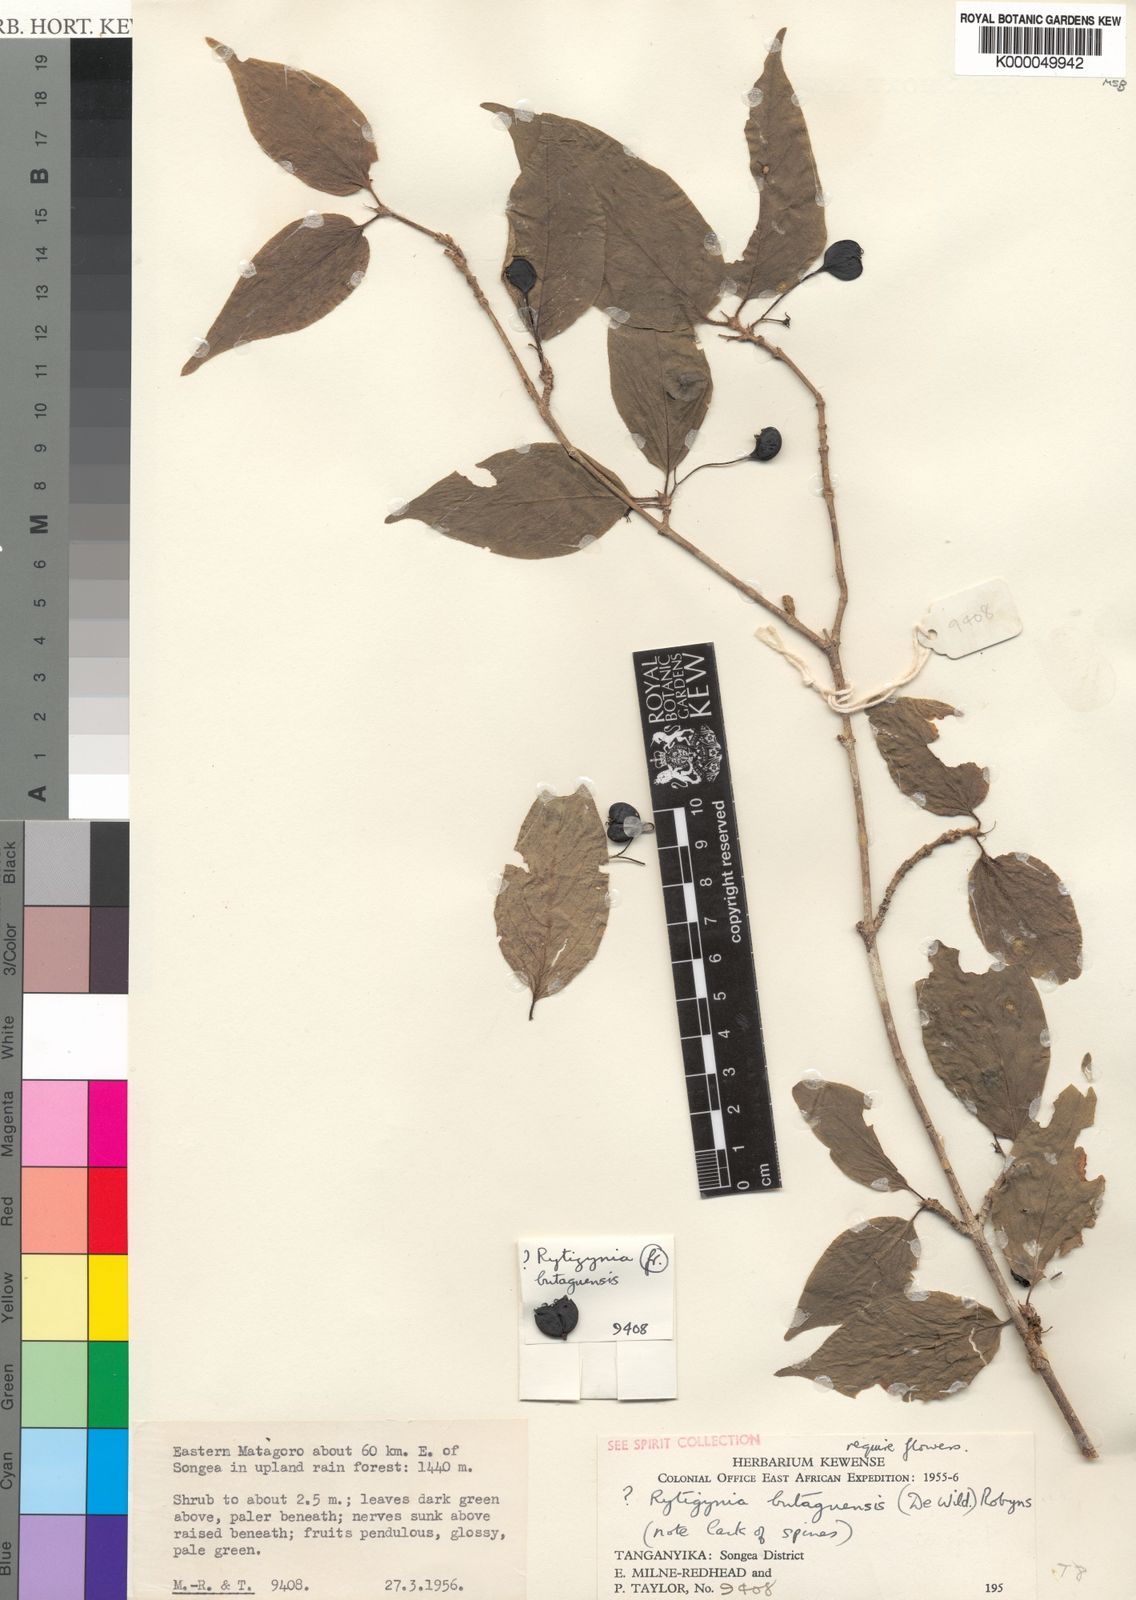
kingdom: Plantae
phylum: Tracheophyta
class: Magnoliopsida
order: Gentianales
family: Rubiaceae
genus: Rytigynia
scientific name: Rytigynia bugoyensis
